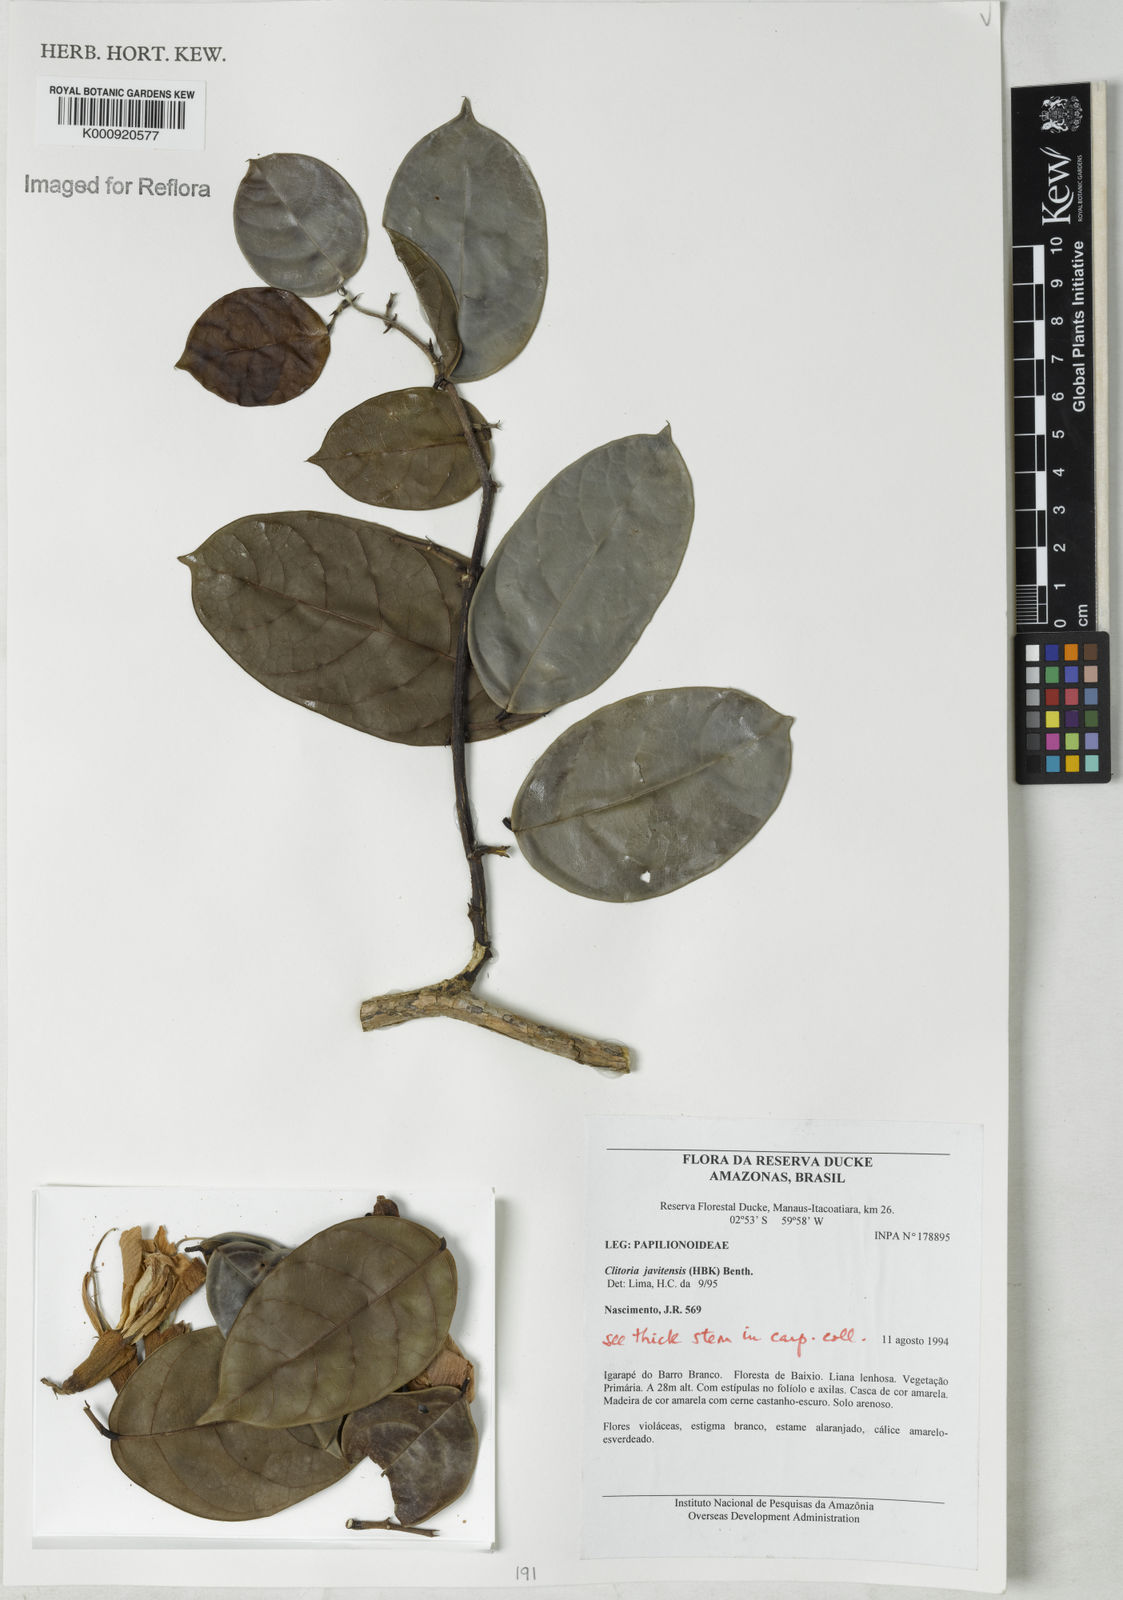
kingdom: Plantae
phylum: Tracheophyta
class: Magnoliopsida
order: Fabales
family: Fabaceae
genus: Clitoria
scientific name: Clitoria javitensis
